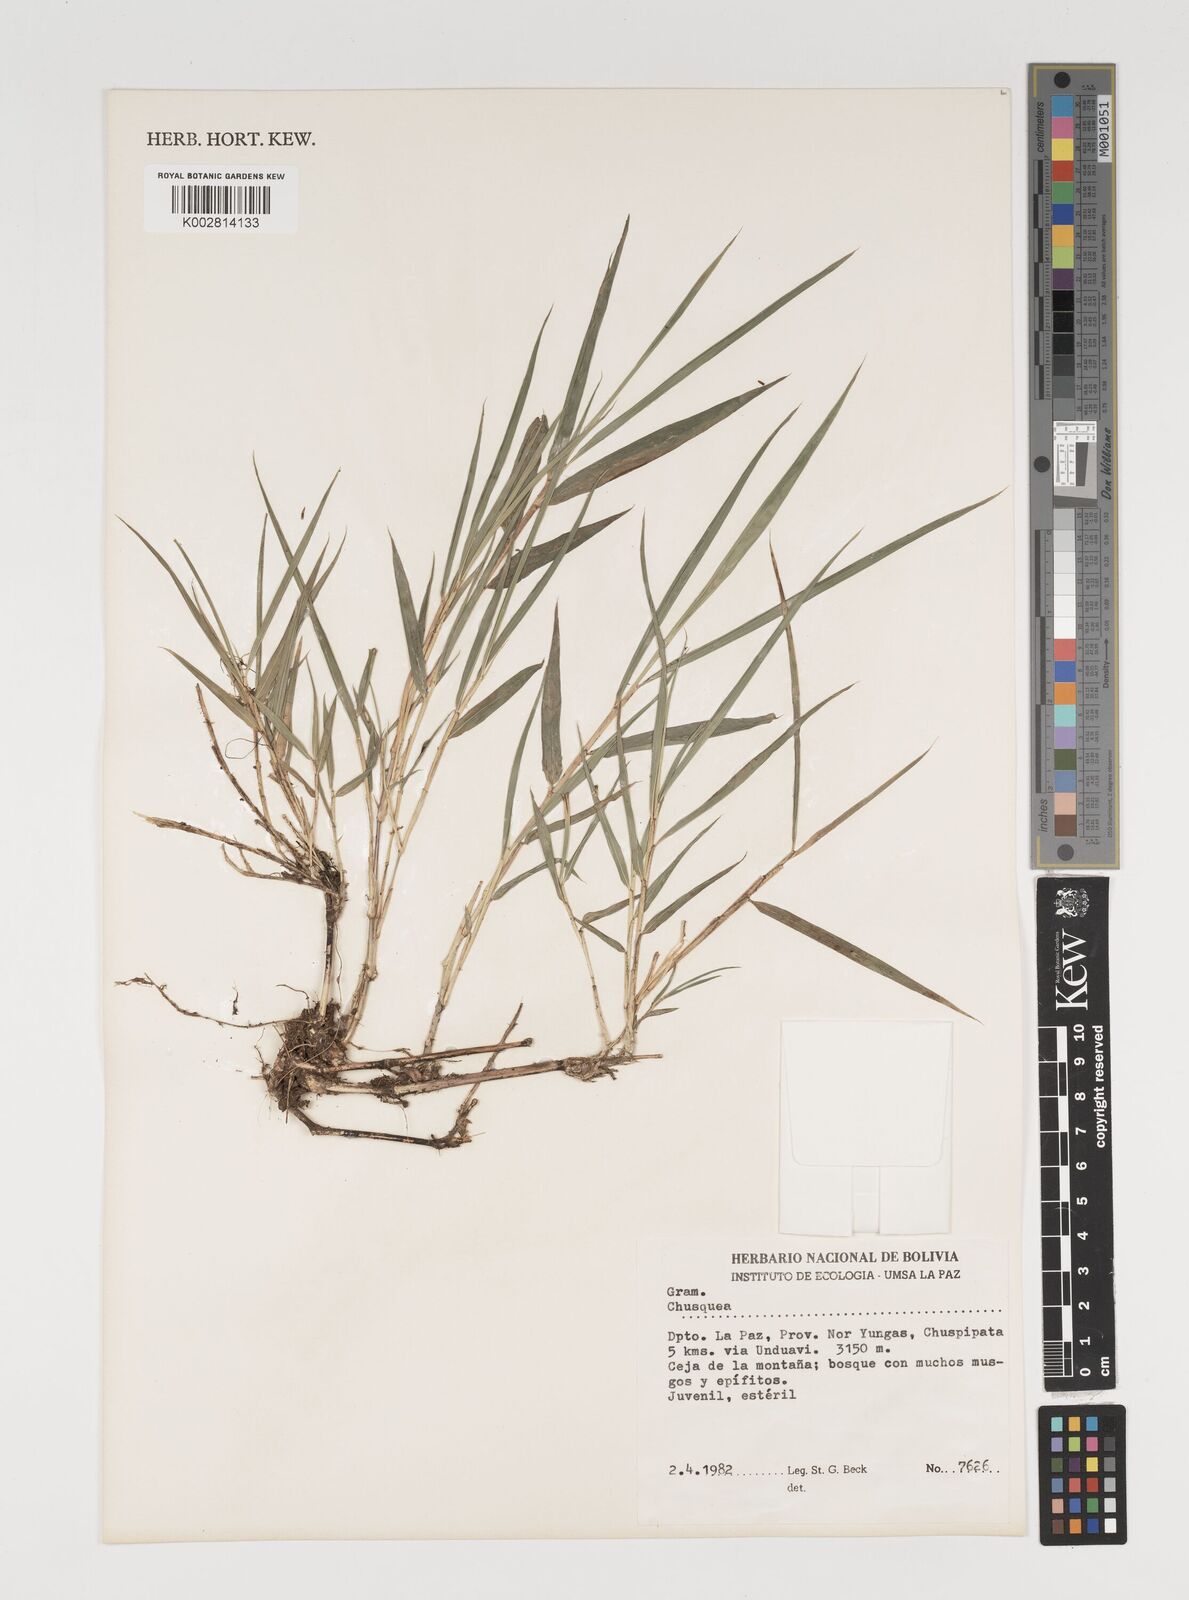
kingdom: Plantae
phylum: Tracheophyta
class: Liliopsida
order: Poales
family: Poaceae
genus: Chusquea
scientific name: Chusquea
